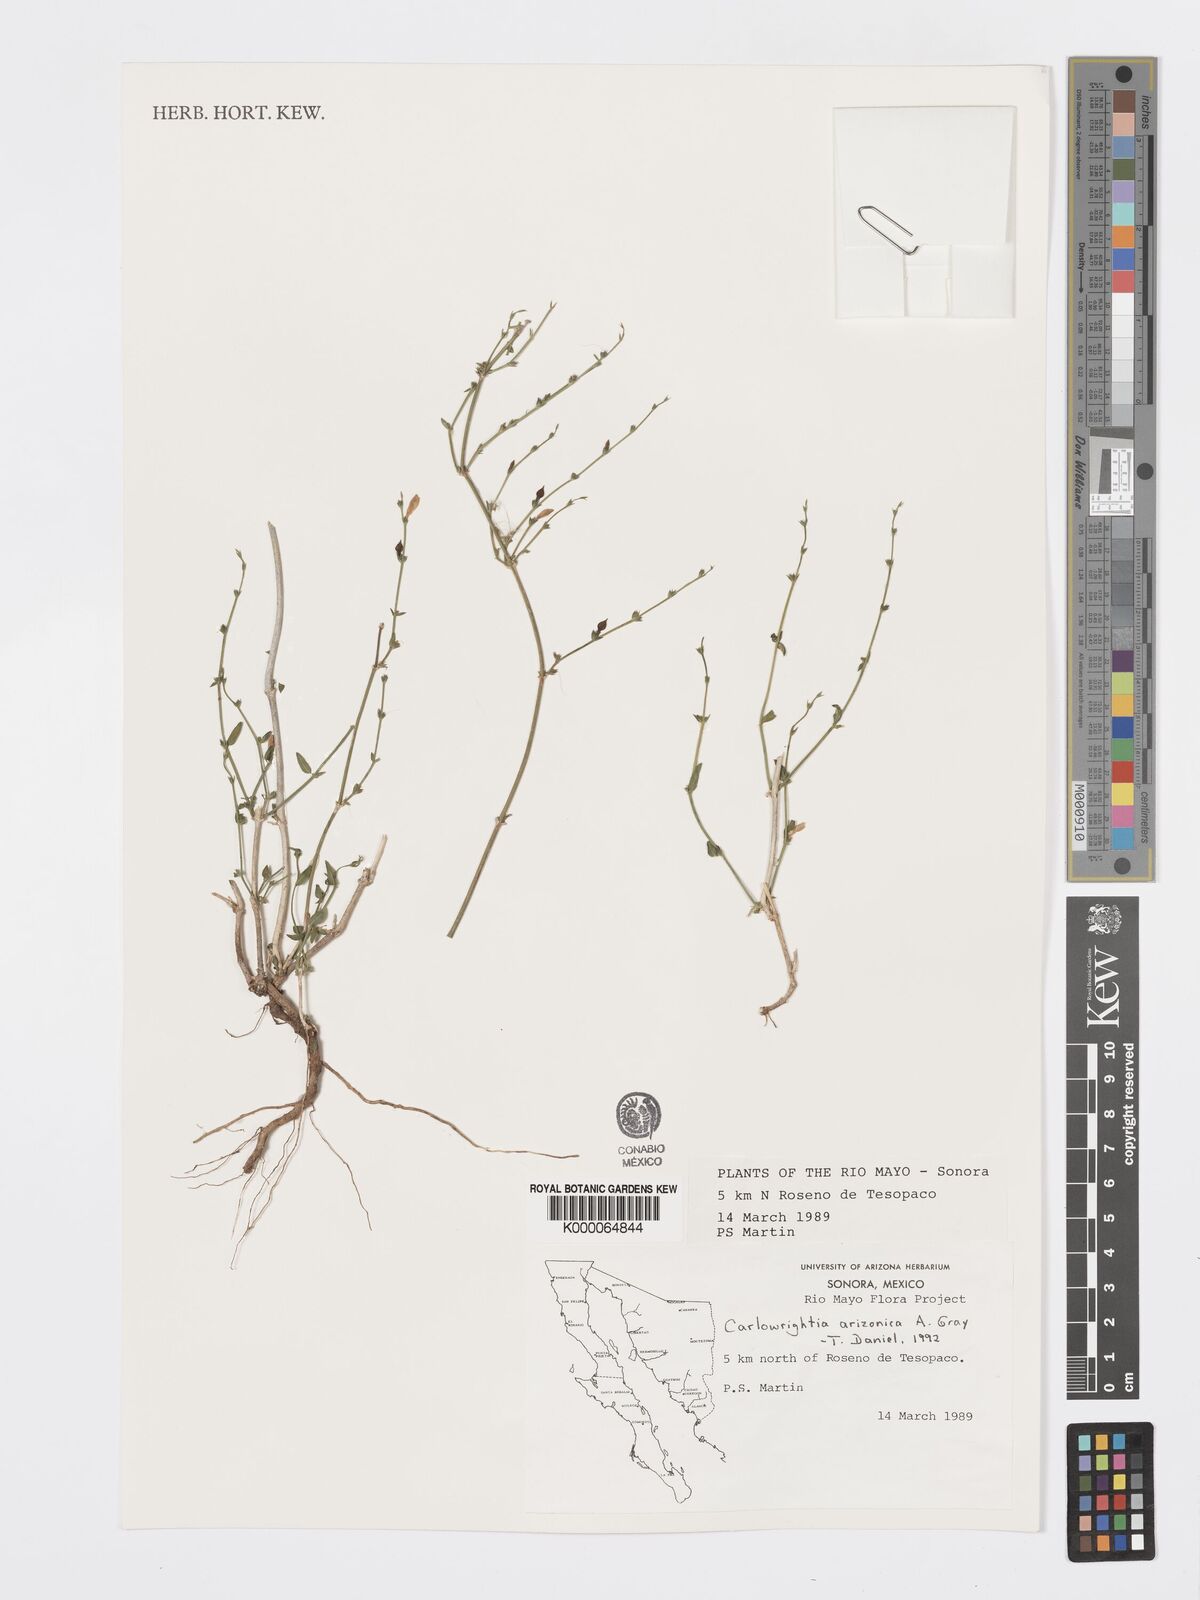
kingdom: Plantae
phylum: Tracheophyta
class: Magnoliopsida
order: Lamiales
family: Acanthaceae
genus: Carlowrightia
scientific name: Carlowrightia arizonica
